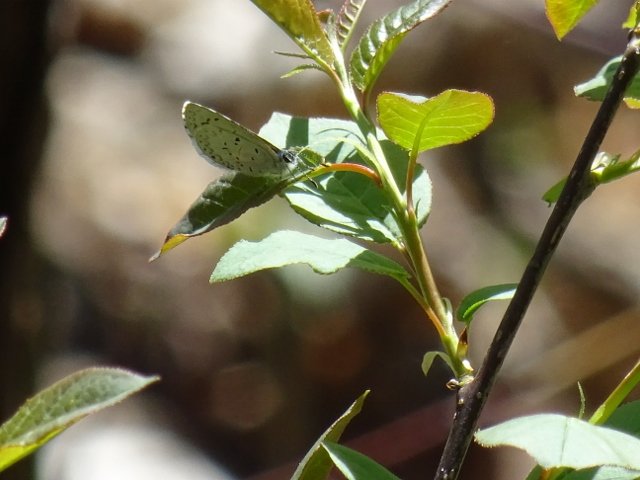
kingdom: Animalia
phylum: Arthropoda
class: Insecta
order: Lepidoptera
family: Lycaenidae
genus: Celastrina
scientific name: Celastrina lucia
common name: Northern Spring Azure
